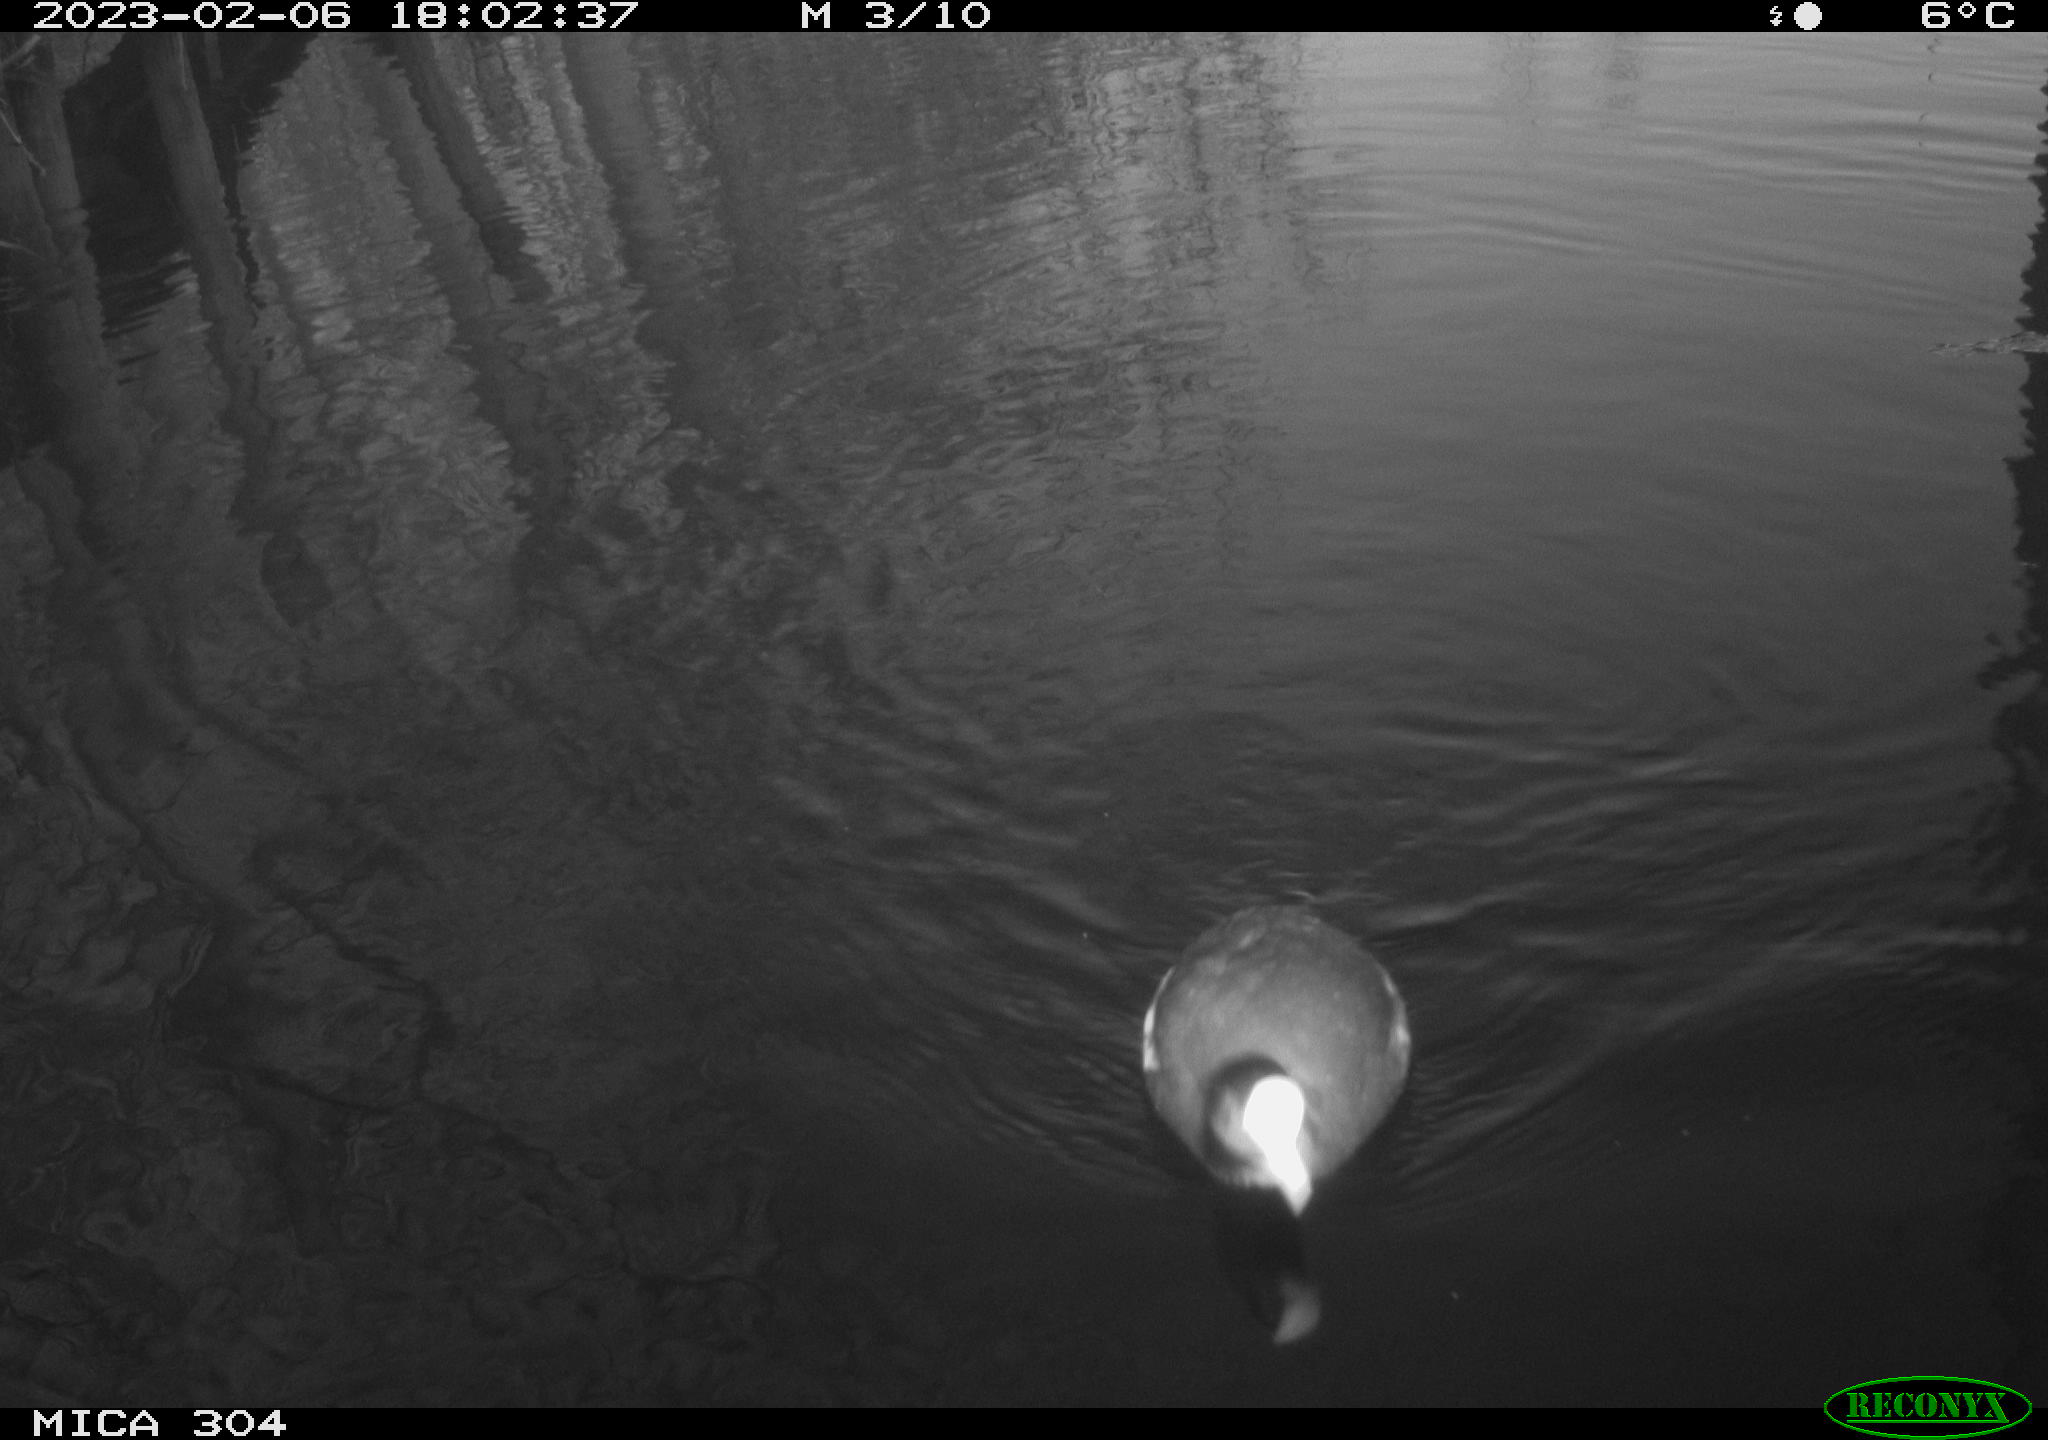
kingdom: Animalia
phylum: Chordata
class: Aves
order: Gruiformes
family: Rallidae
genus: Fulica
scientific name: Fulica atra
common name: Eurasian coot
